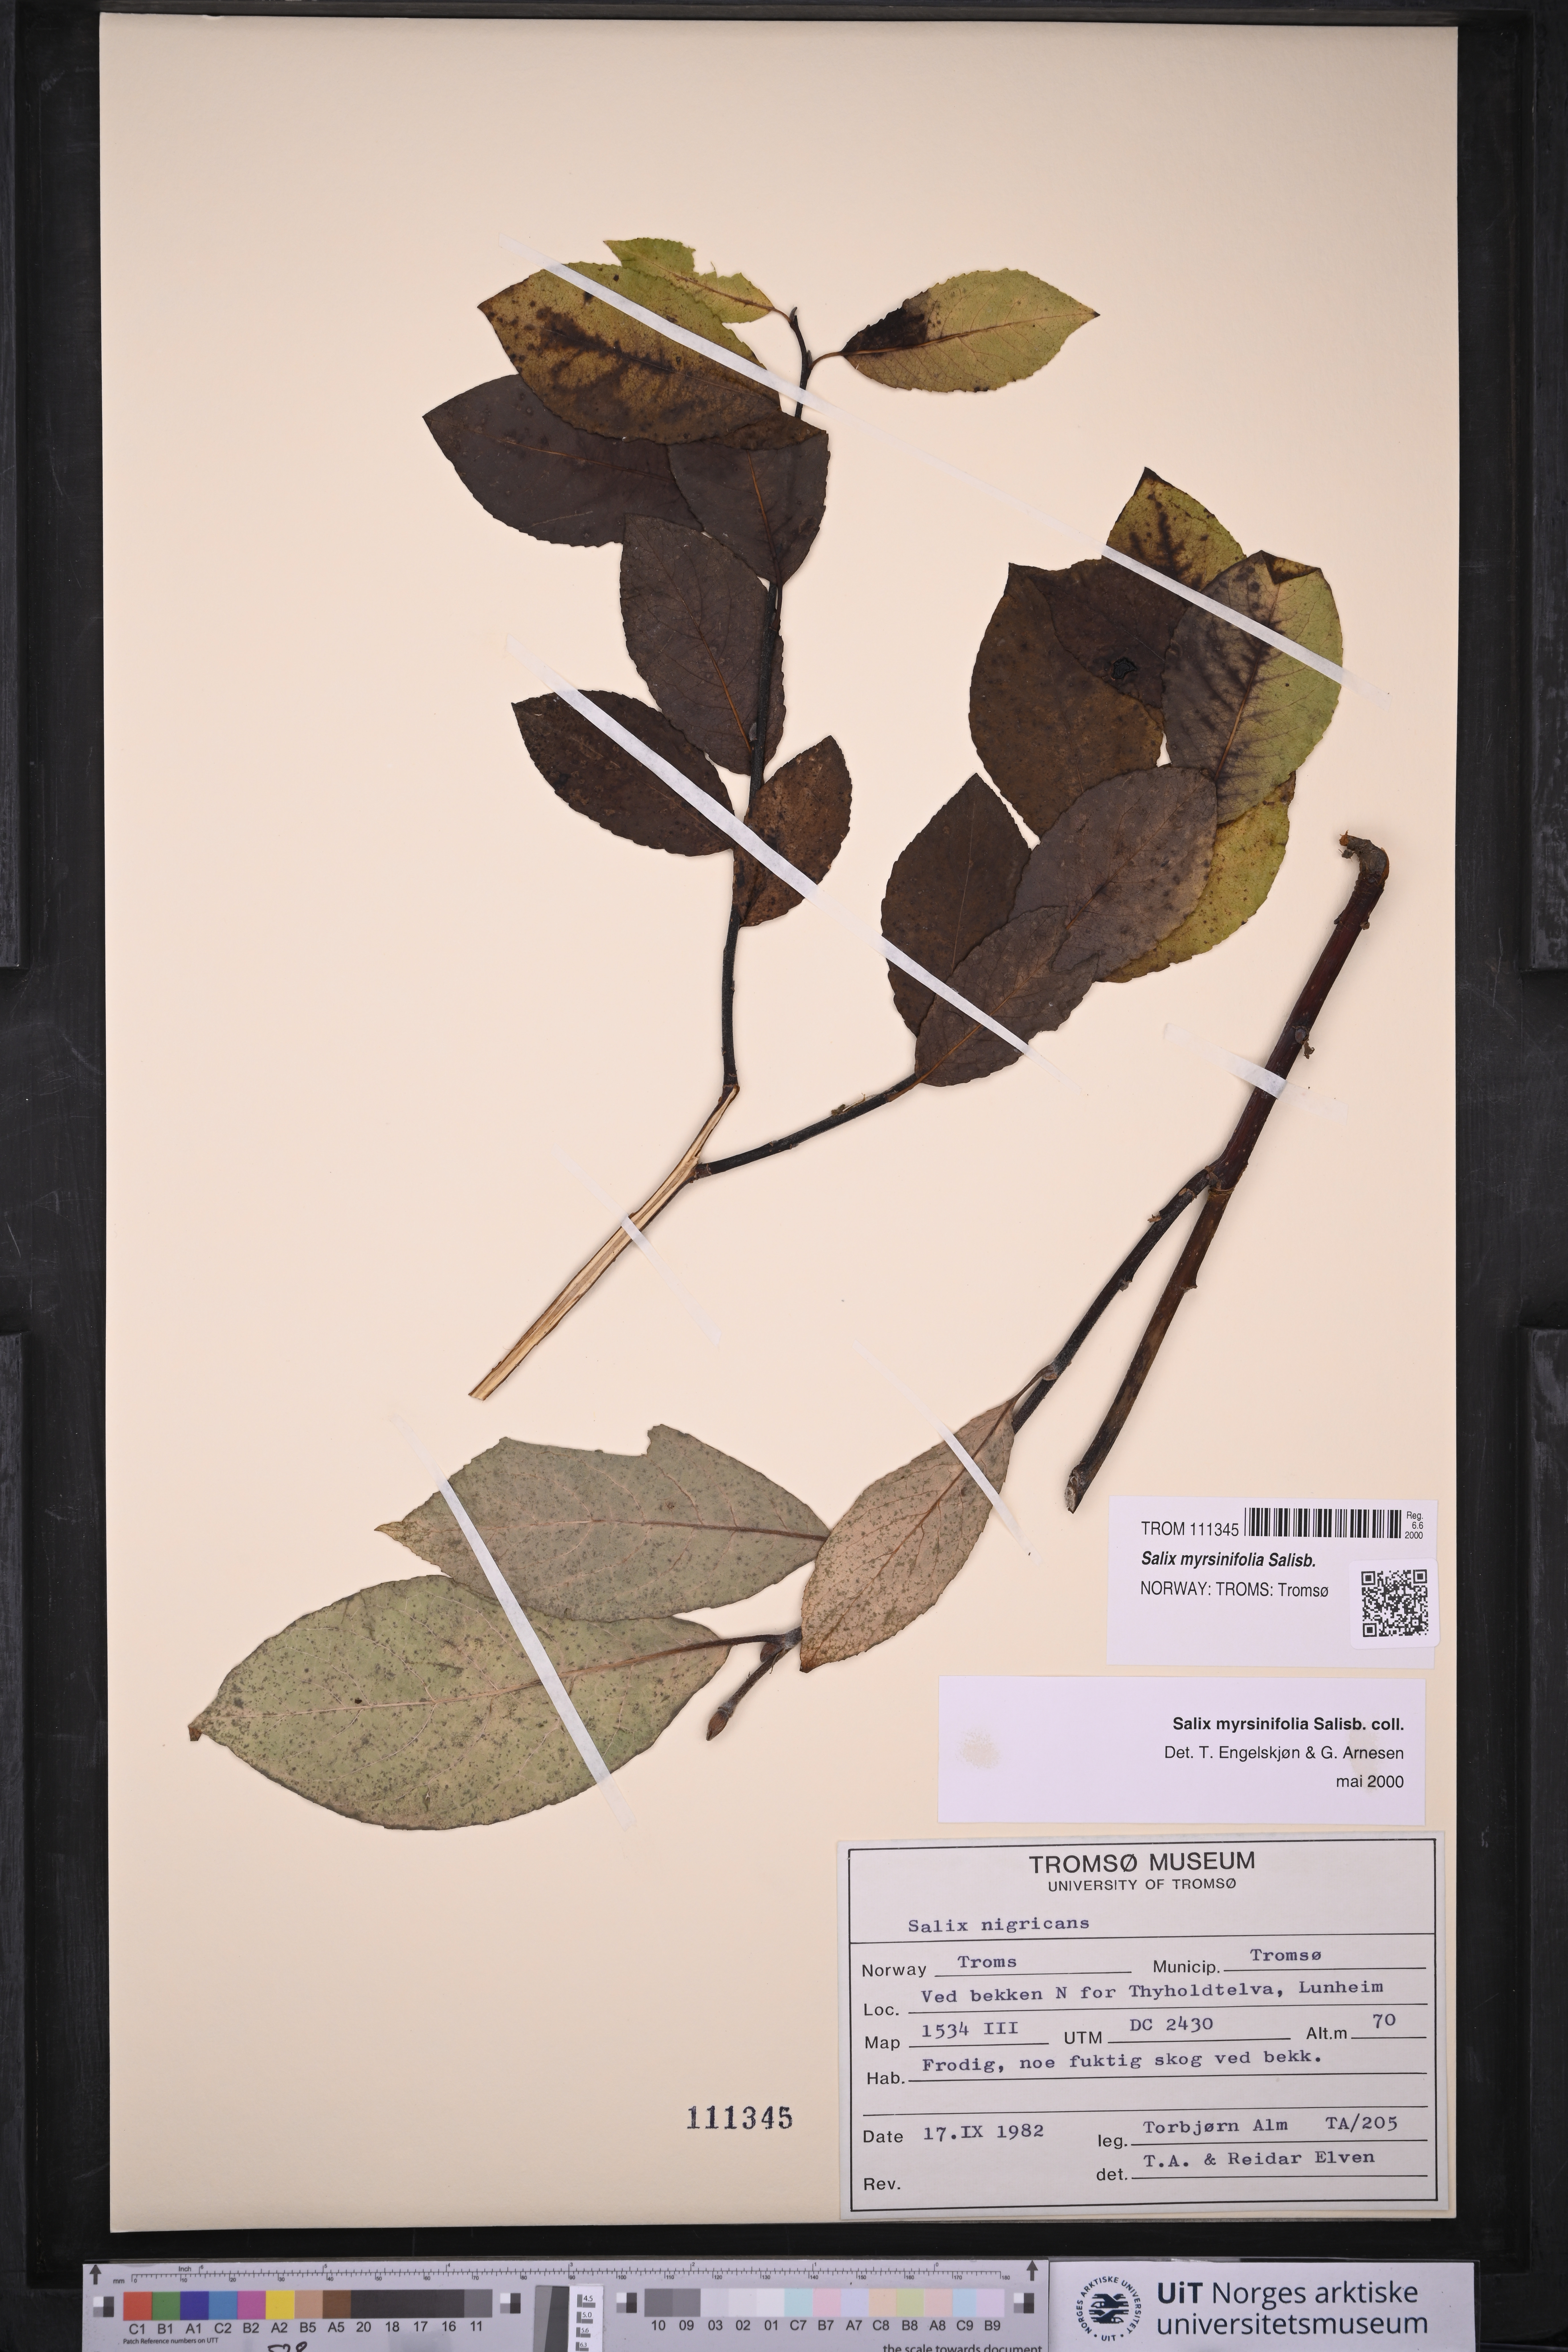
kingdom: Plantae
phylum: Tracheophyta
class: Magnoliopsida
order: Malpighiales
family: Salicaceae
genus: Salix
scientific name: Salix myrsinifolia
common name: Dark-leaved willow
